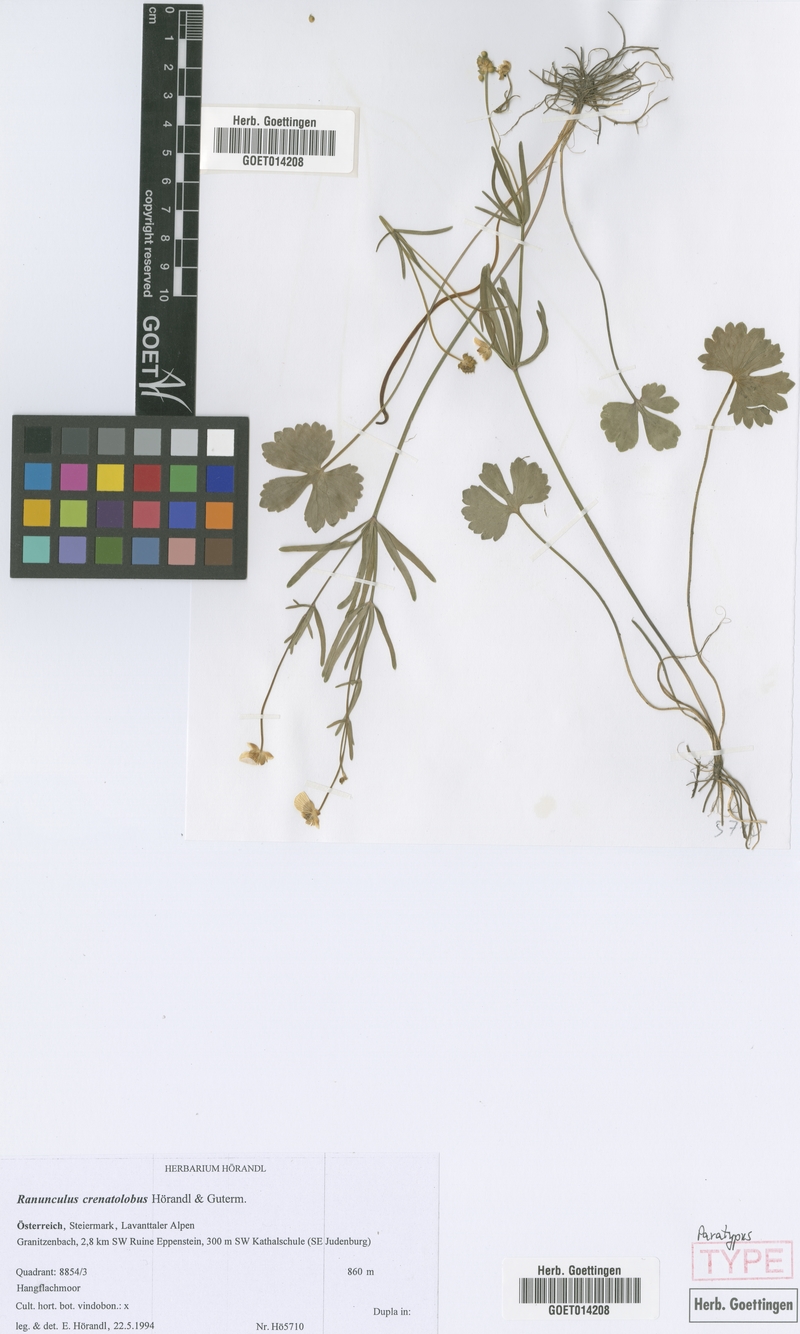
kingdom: Plantae
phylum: Tracheophyta
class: Magnoliopsida
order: Ranunculales
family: Ranunculaceae
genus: Ranunculus
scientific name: Ranunculus crenatolobus
